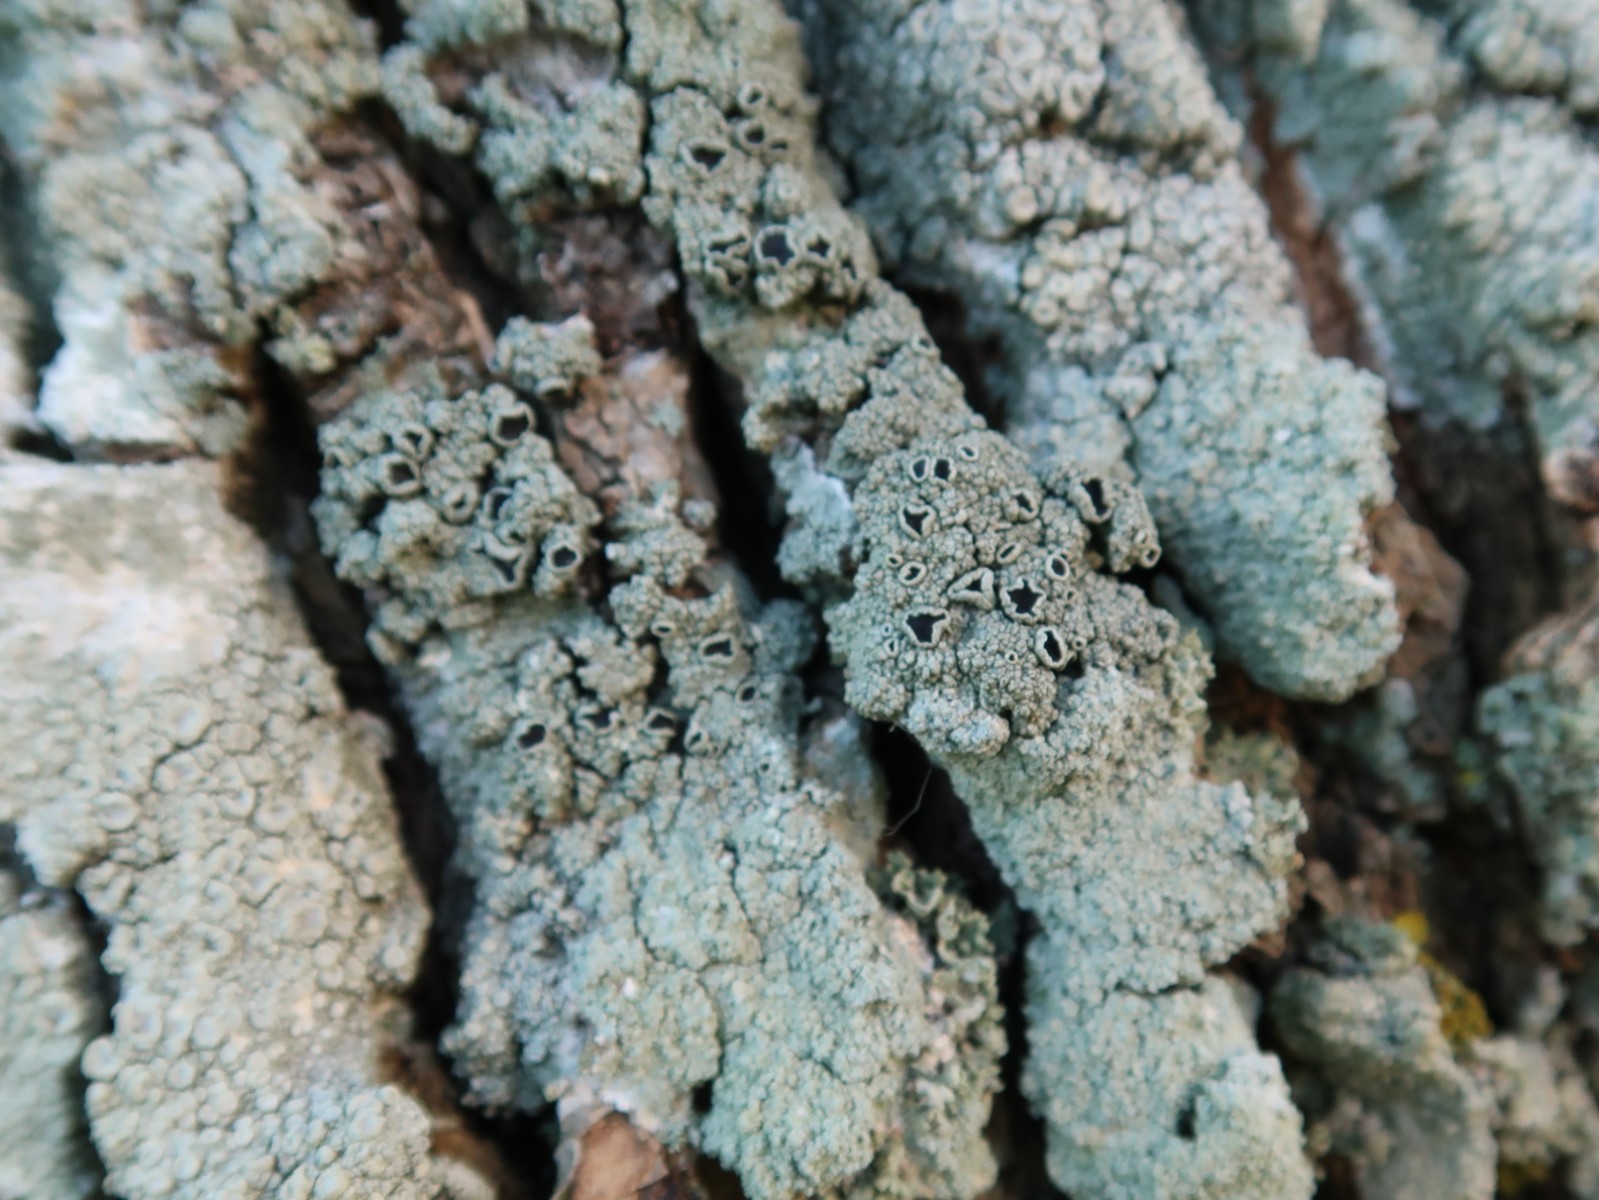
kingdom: Fungi
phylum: Ascomycota
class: Lecanoromycetes
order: Lecanorales
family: Tephromelataceae
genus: Tephromela
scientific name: Tephromela atra
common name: sortfrugtet kantskivelav
